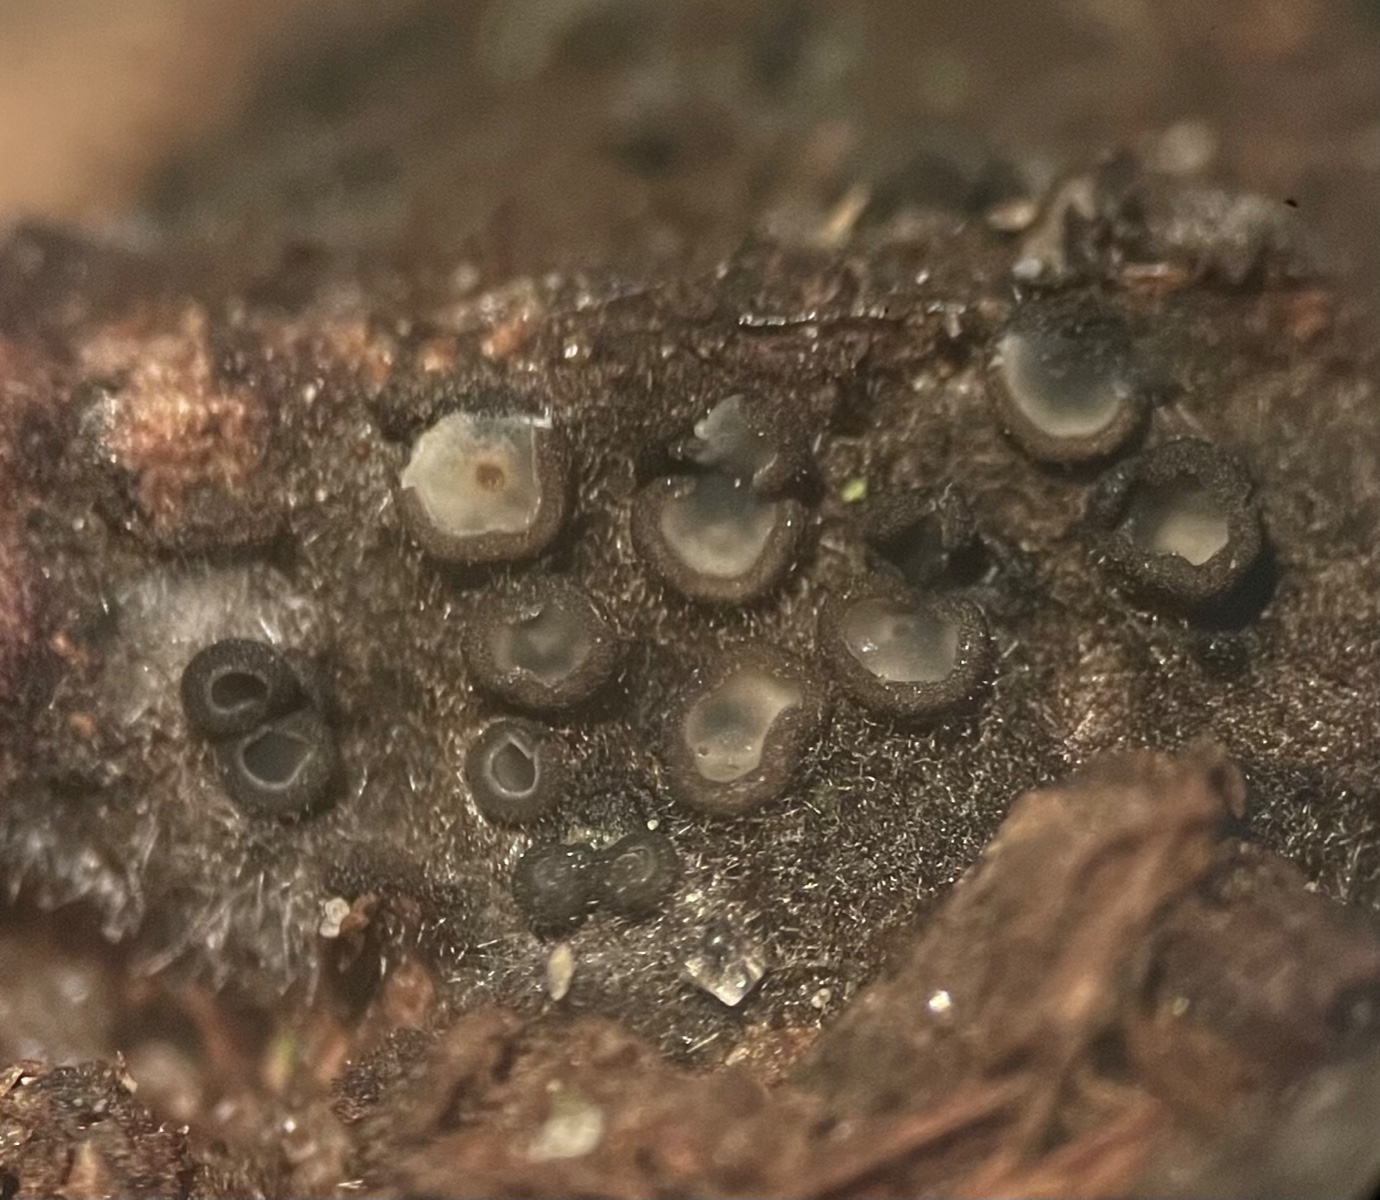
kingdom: Fungi
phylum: Ascomycota
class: Leotiomycetes
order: Helotiales
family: Mollisiaceae
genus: Mollisia
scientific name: Mollisia
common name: gråskive
